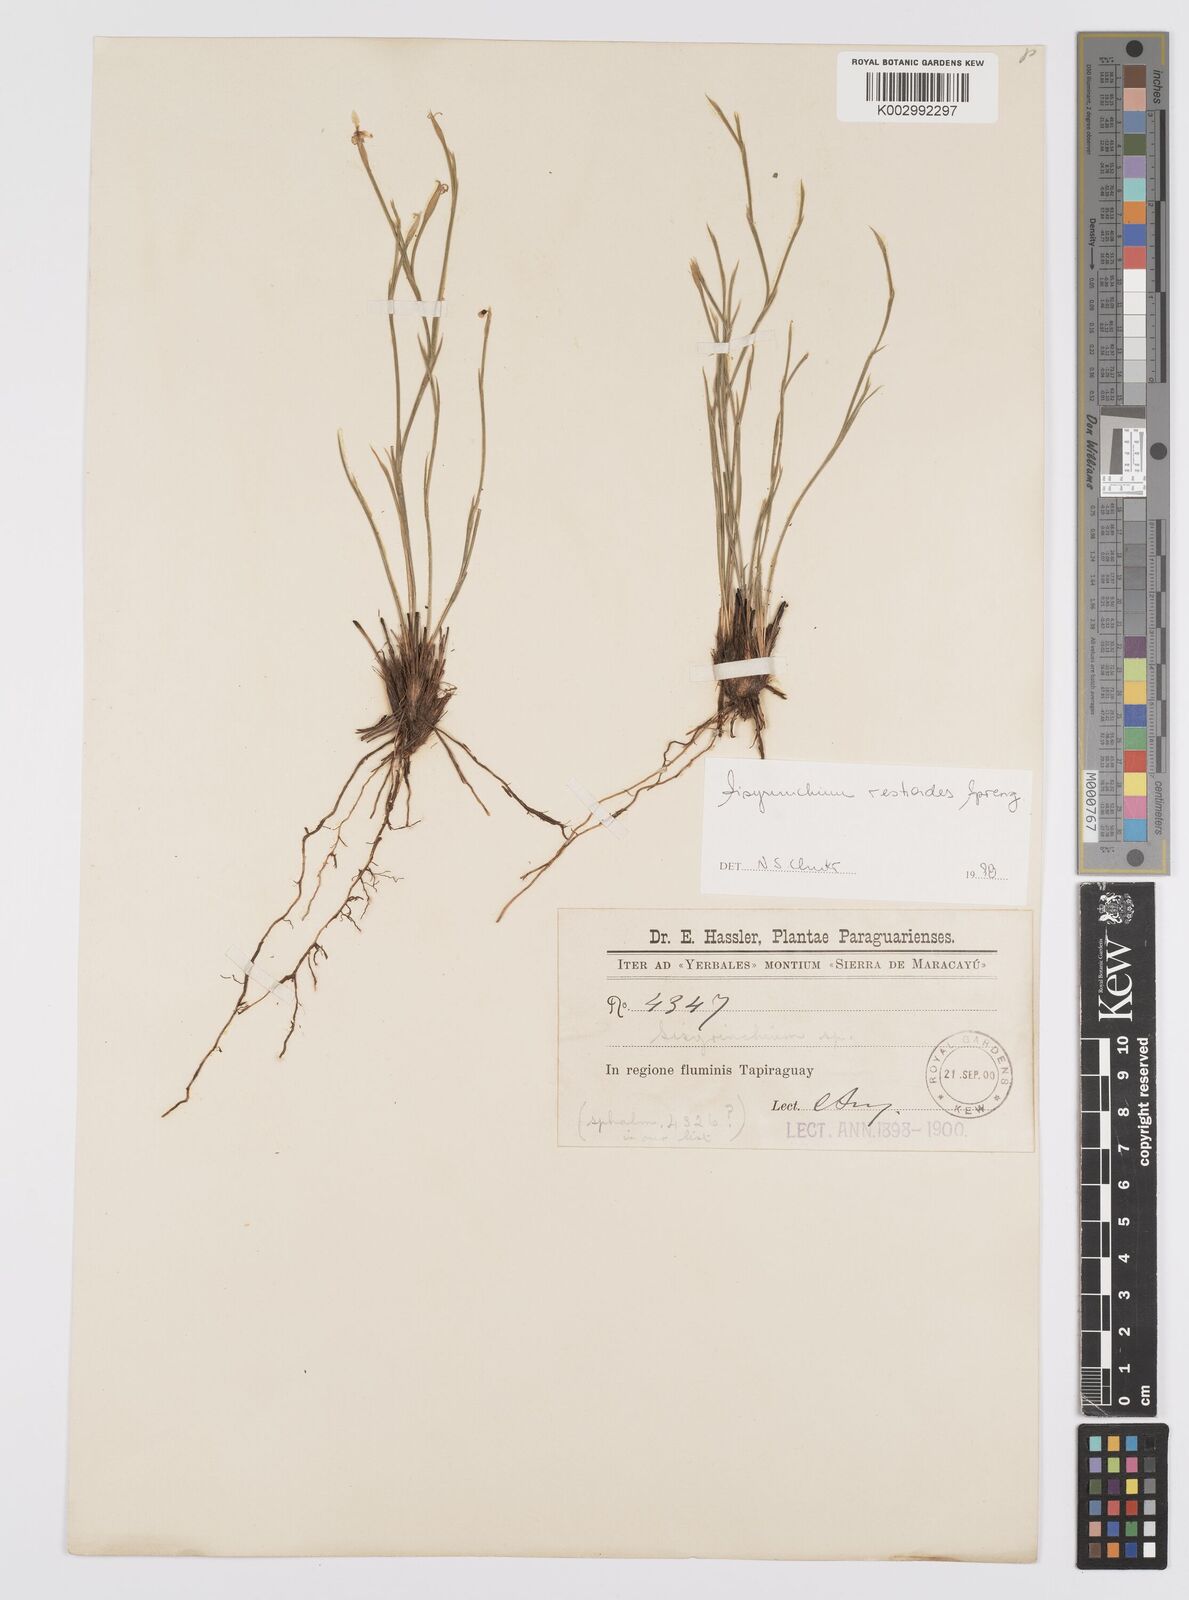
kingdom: Plantae
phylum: Tracheophyta
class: Liliopsida
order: Asparagales
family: Iridaceae
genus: Sisyrinchium
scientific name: Sisyrinchium restioides
